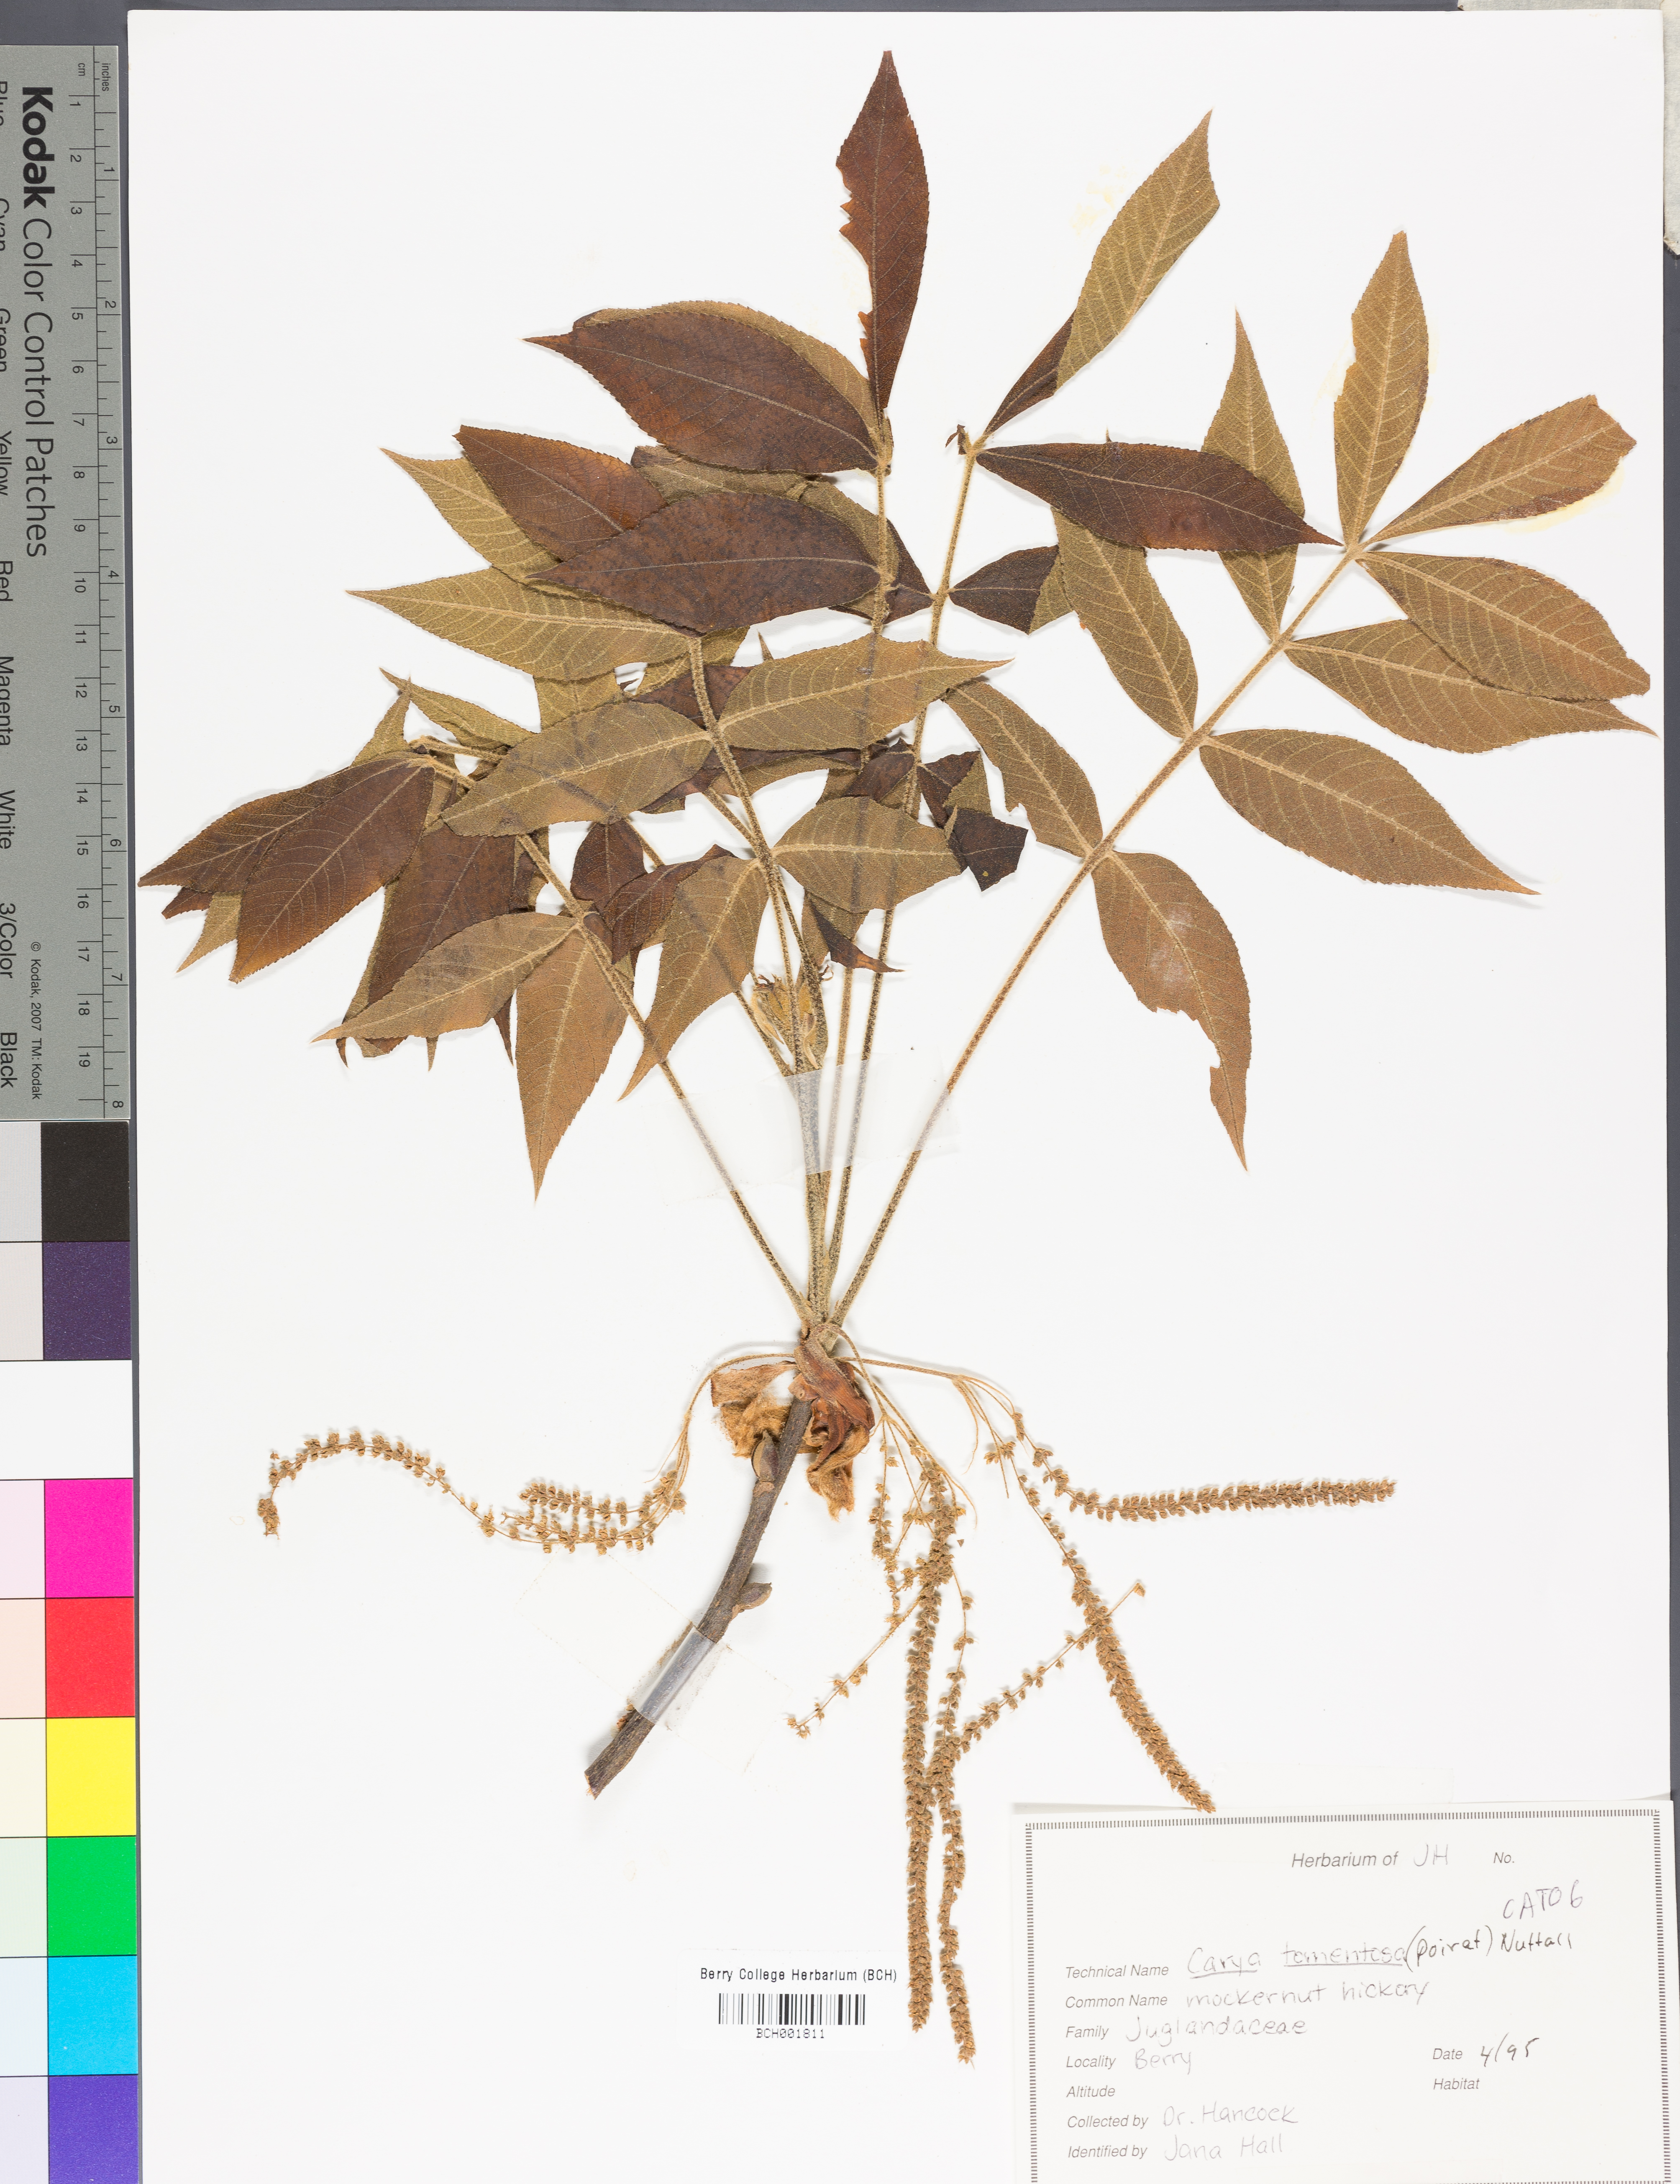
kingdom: Plantae
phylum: Tracheophyta
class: Magnoliopsida
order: Fagales
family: Juglandaceae
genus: Carya
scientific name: Carya alba
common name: Mockernut hickory
